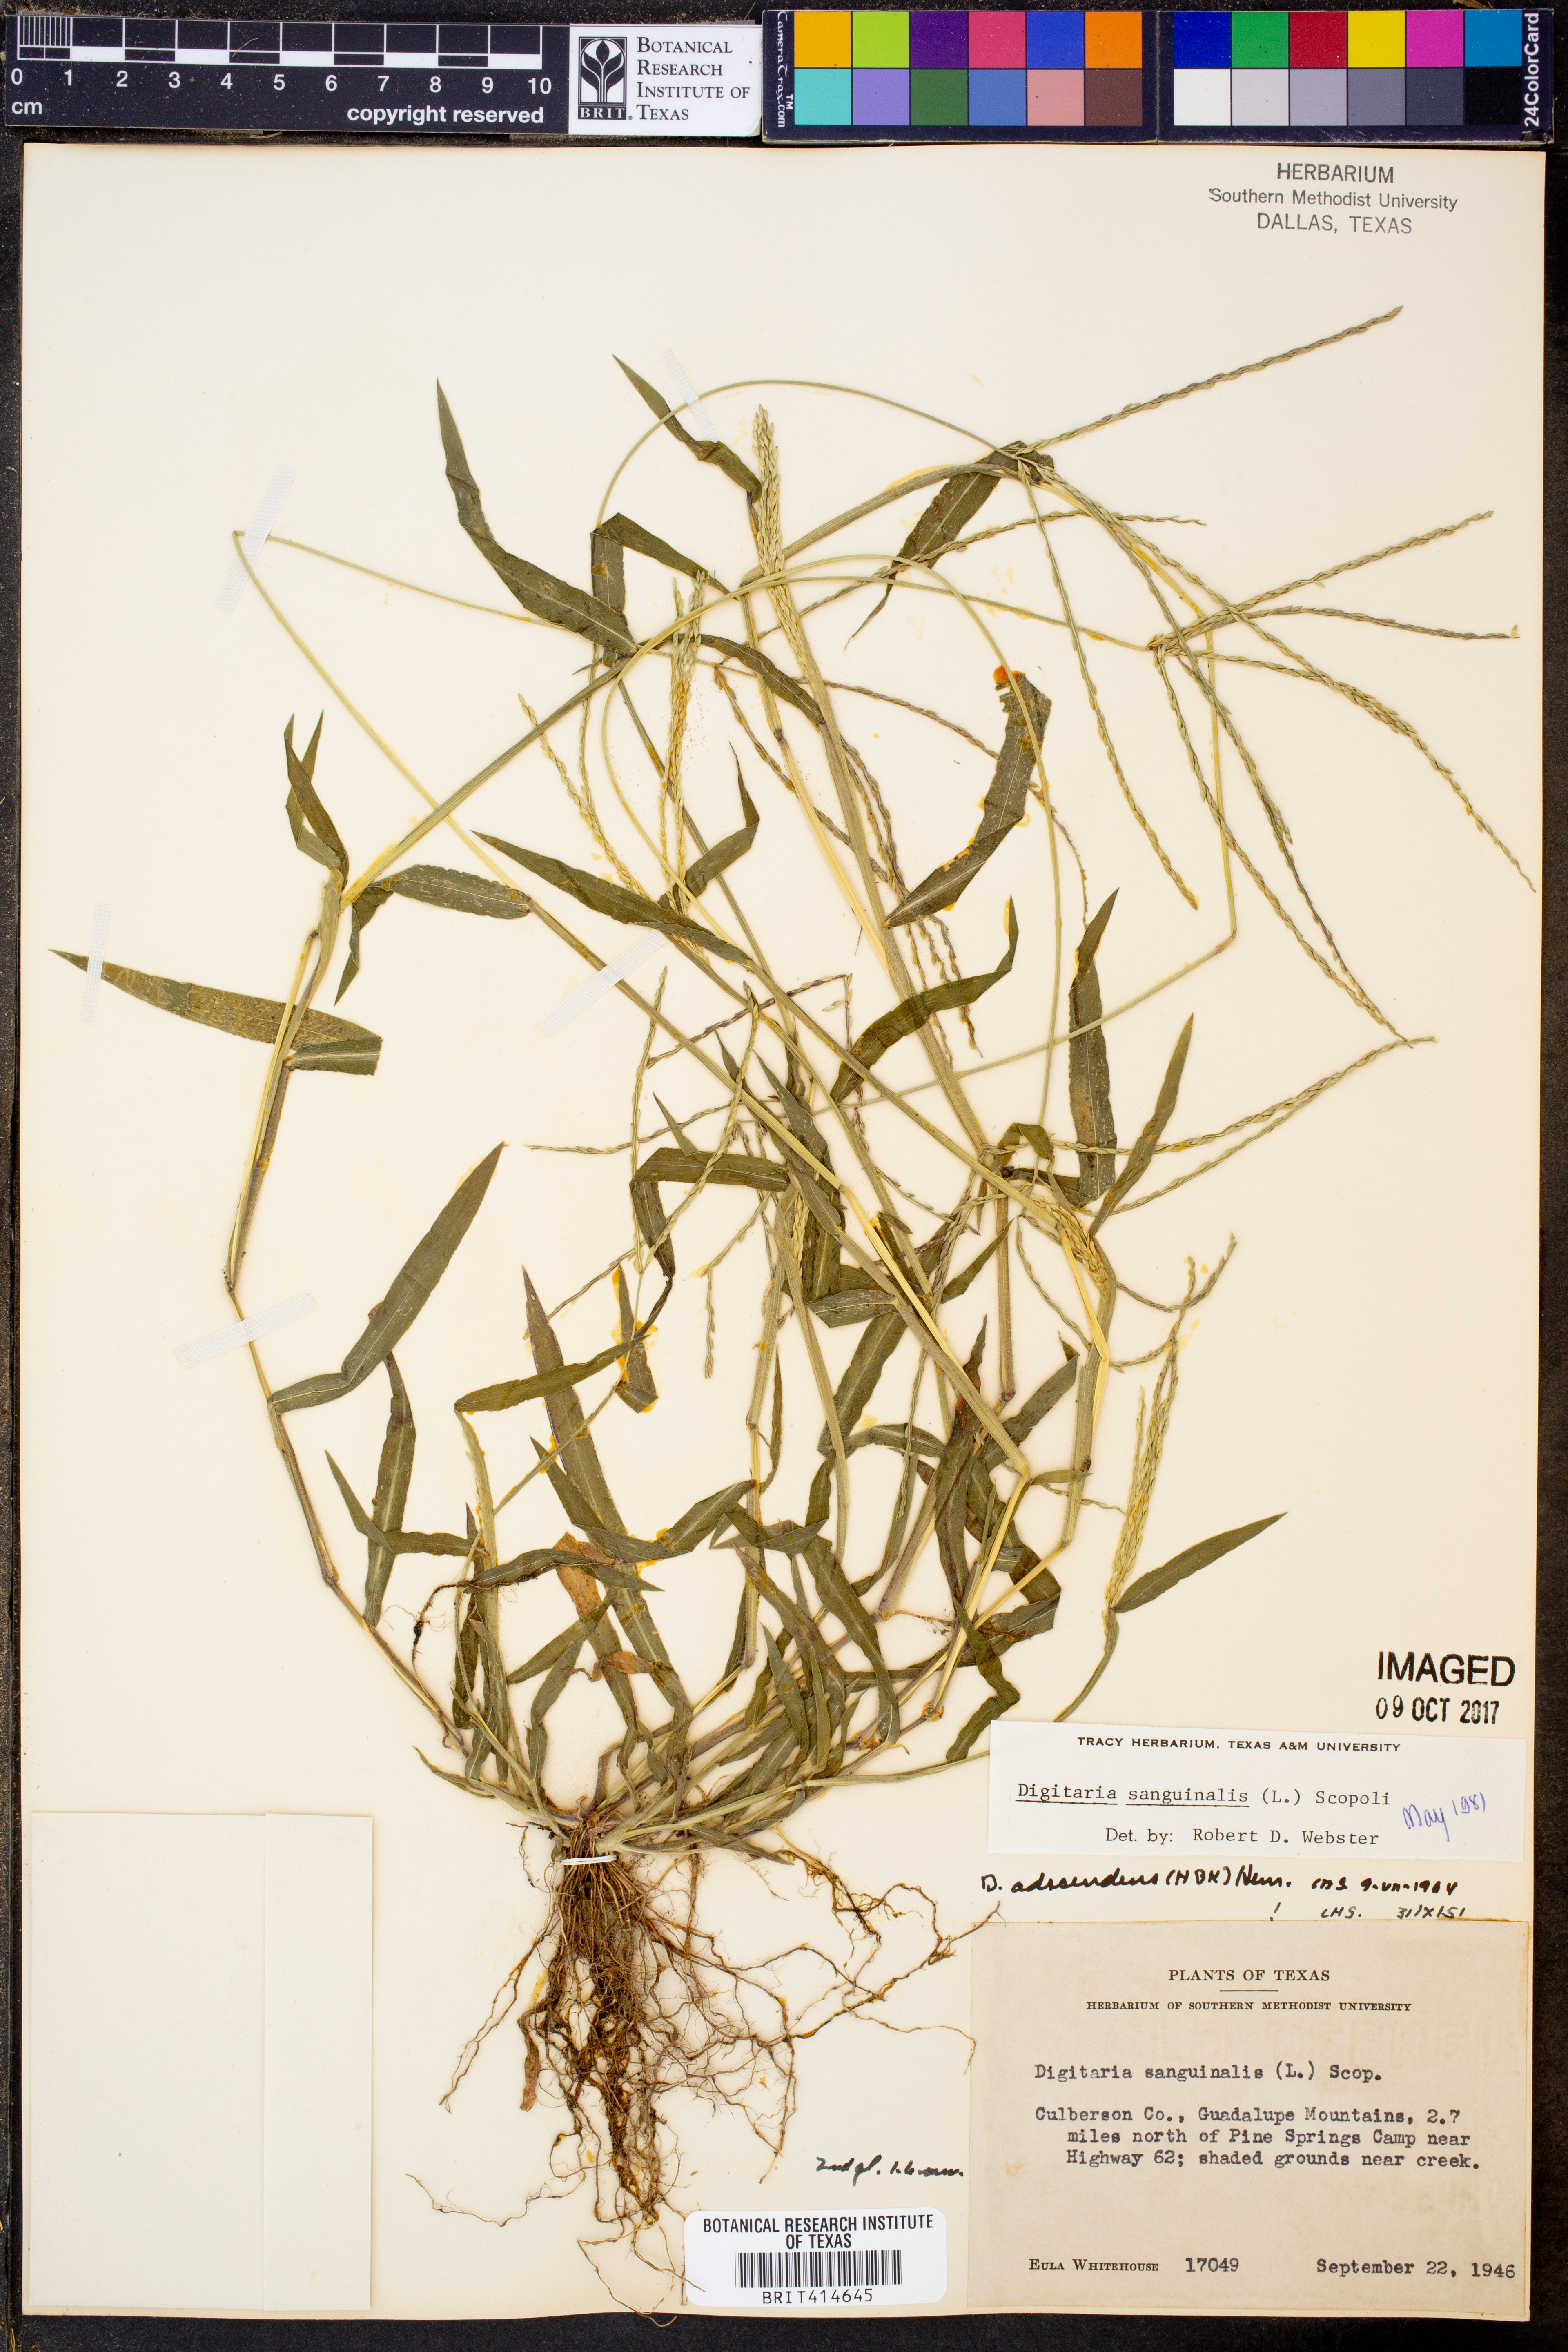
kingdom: Plantae
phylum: Tracheophyta
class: Liliopsida
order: Poales
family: Poaceae
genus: Digitaria
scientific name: Digitaria sanguinalis
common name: Hairy crabgrass
